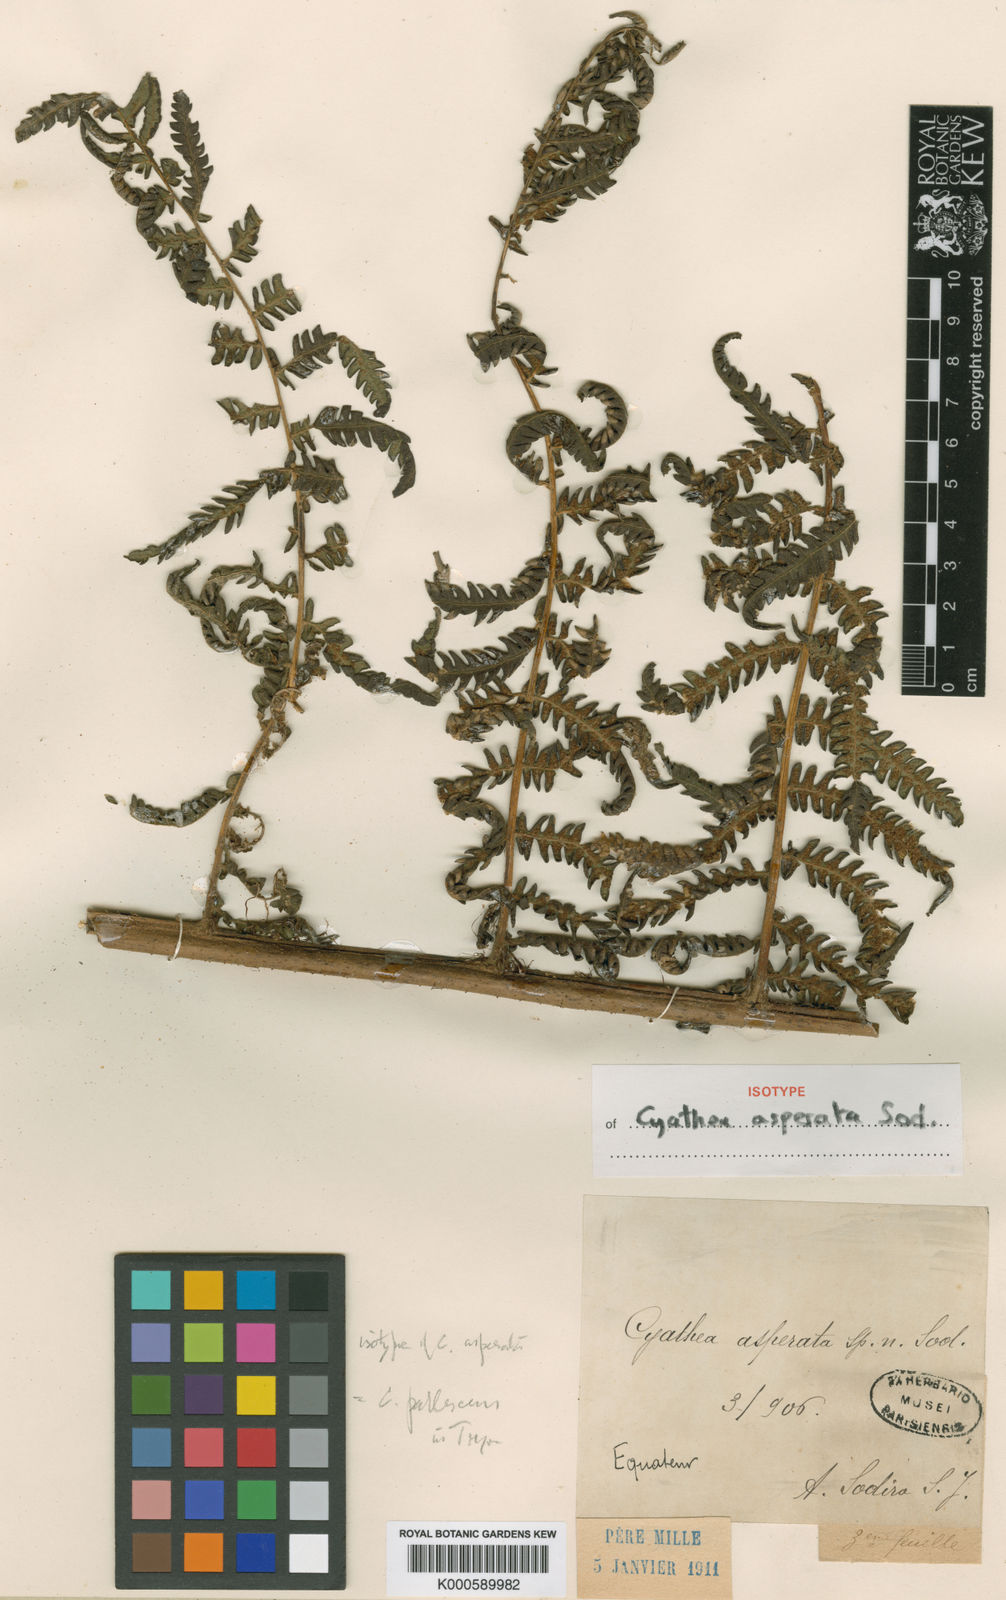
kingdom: Plantae
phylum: Tracheophyta
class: Polypodiopsida
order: Cyatheales
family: Cyatheaceae
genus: Cyathea
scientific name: Cyathea pallescens
